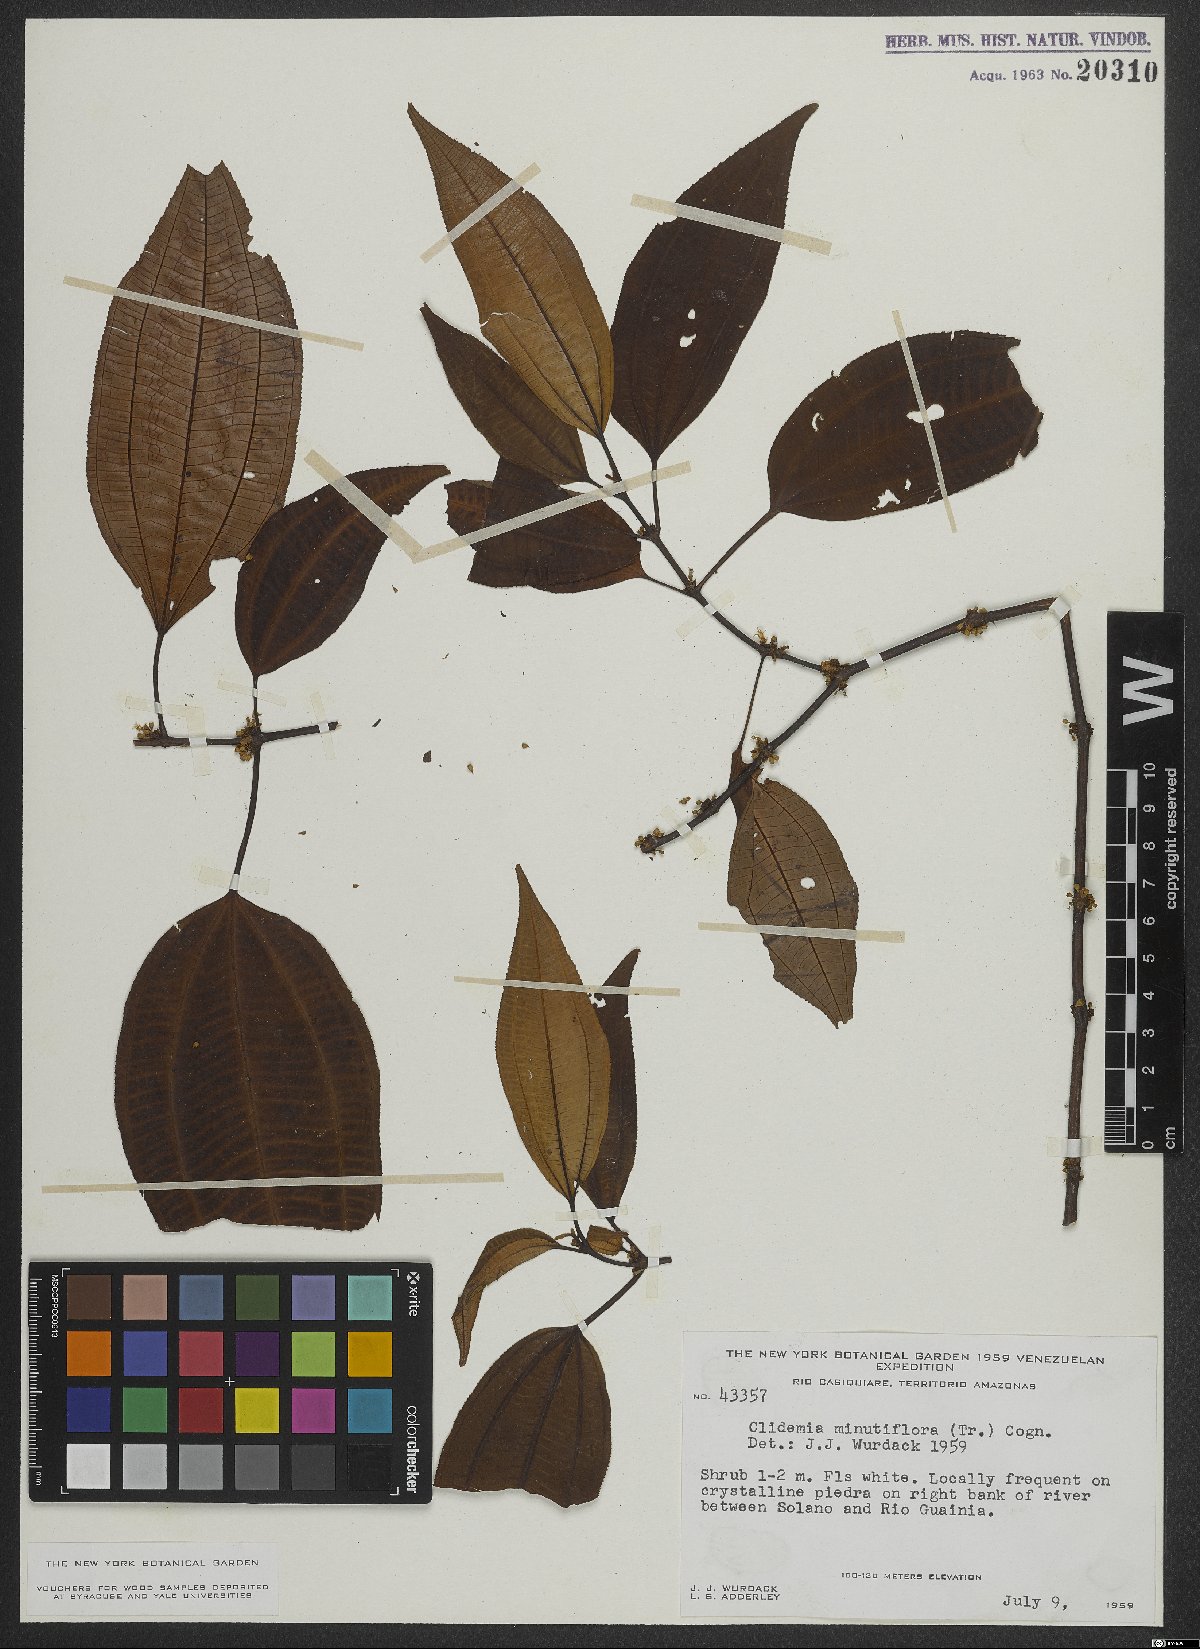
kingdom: Plantae
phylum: Tracheophyta
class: Magnoliopsida
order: Myrtales
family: Melastomataceae
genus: Miconia
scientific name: Miconia minutiflora
